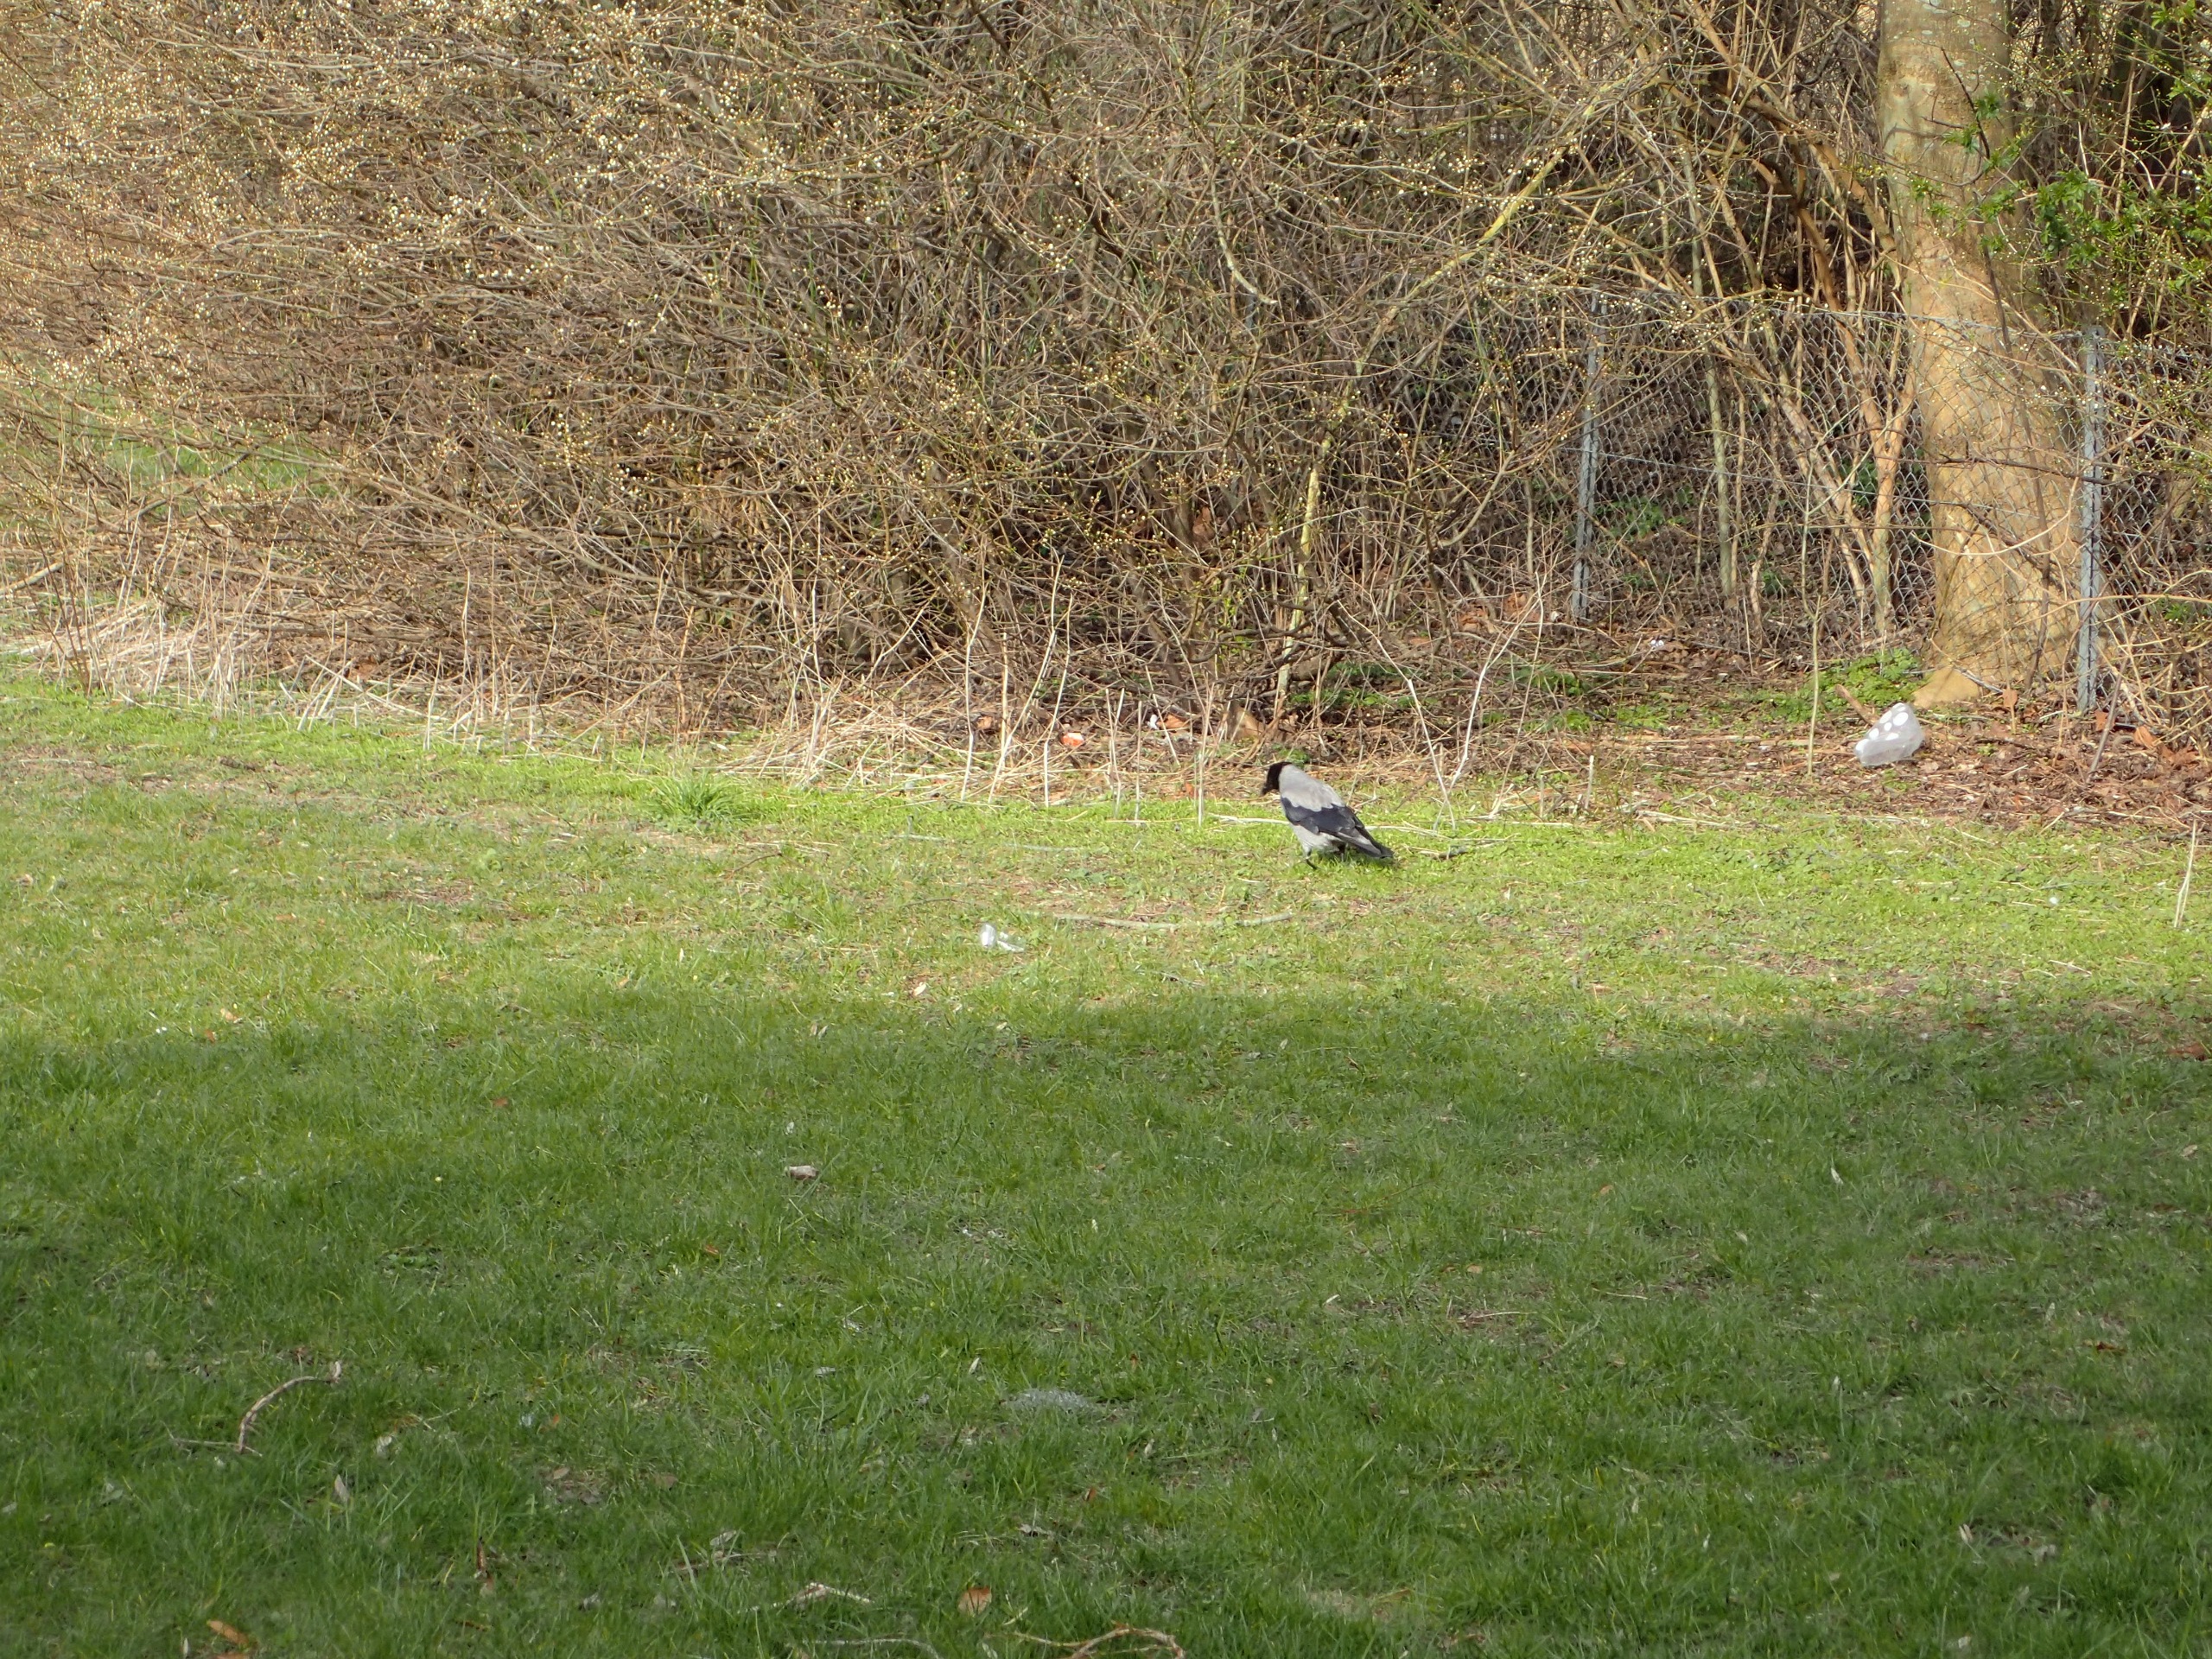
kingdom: Animalia
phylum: Chordata
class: Aves
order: Passeriformes
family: Corvidae
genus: Corvus
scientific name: Corvus cornix
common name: Gråkrage
